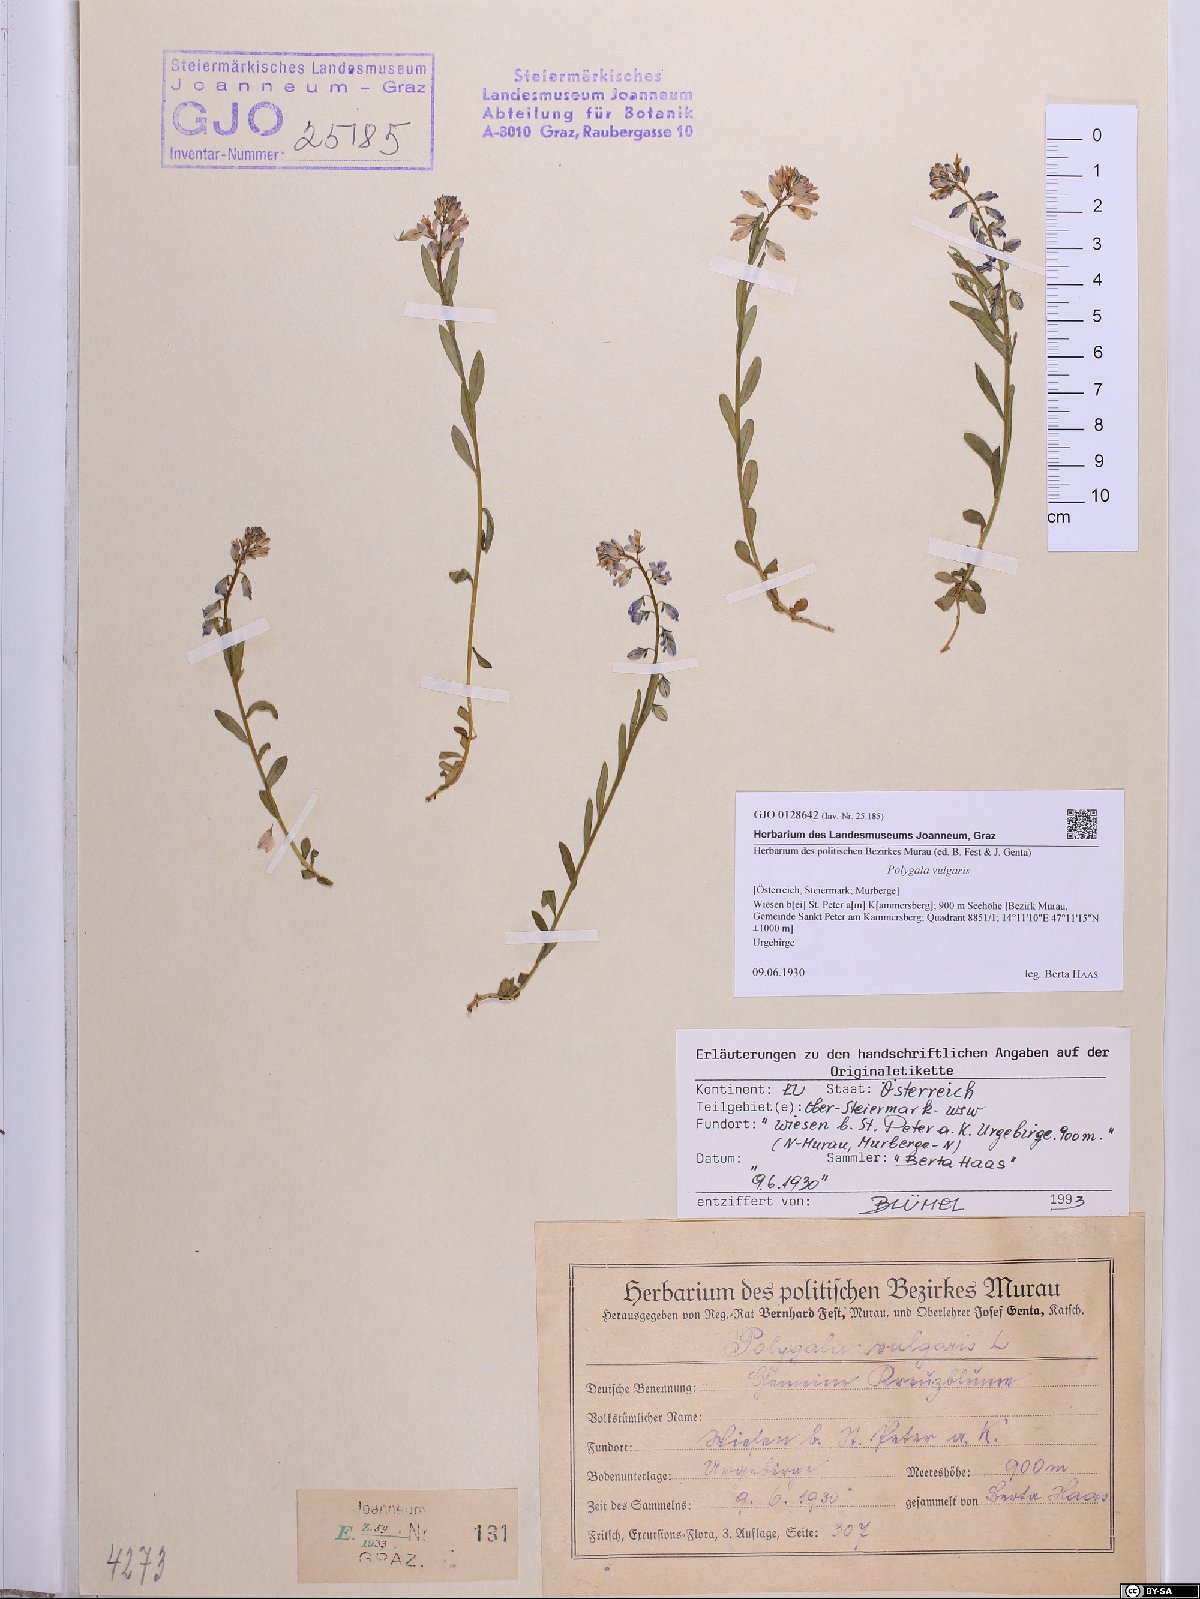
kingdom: Plantae
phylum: Tracheophyta
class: Magnoliopsida
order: Fabales
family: Polygalaceae
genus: Polygala
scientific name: Polygala vulgaris
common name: Common milkwort
